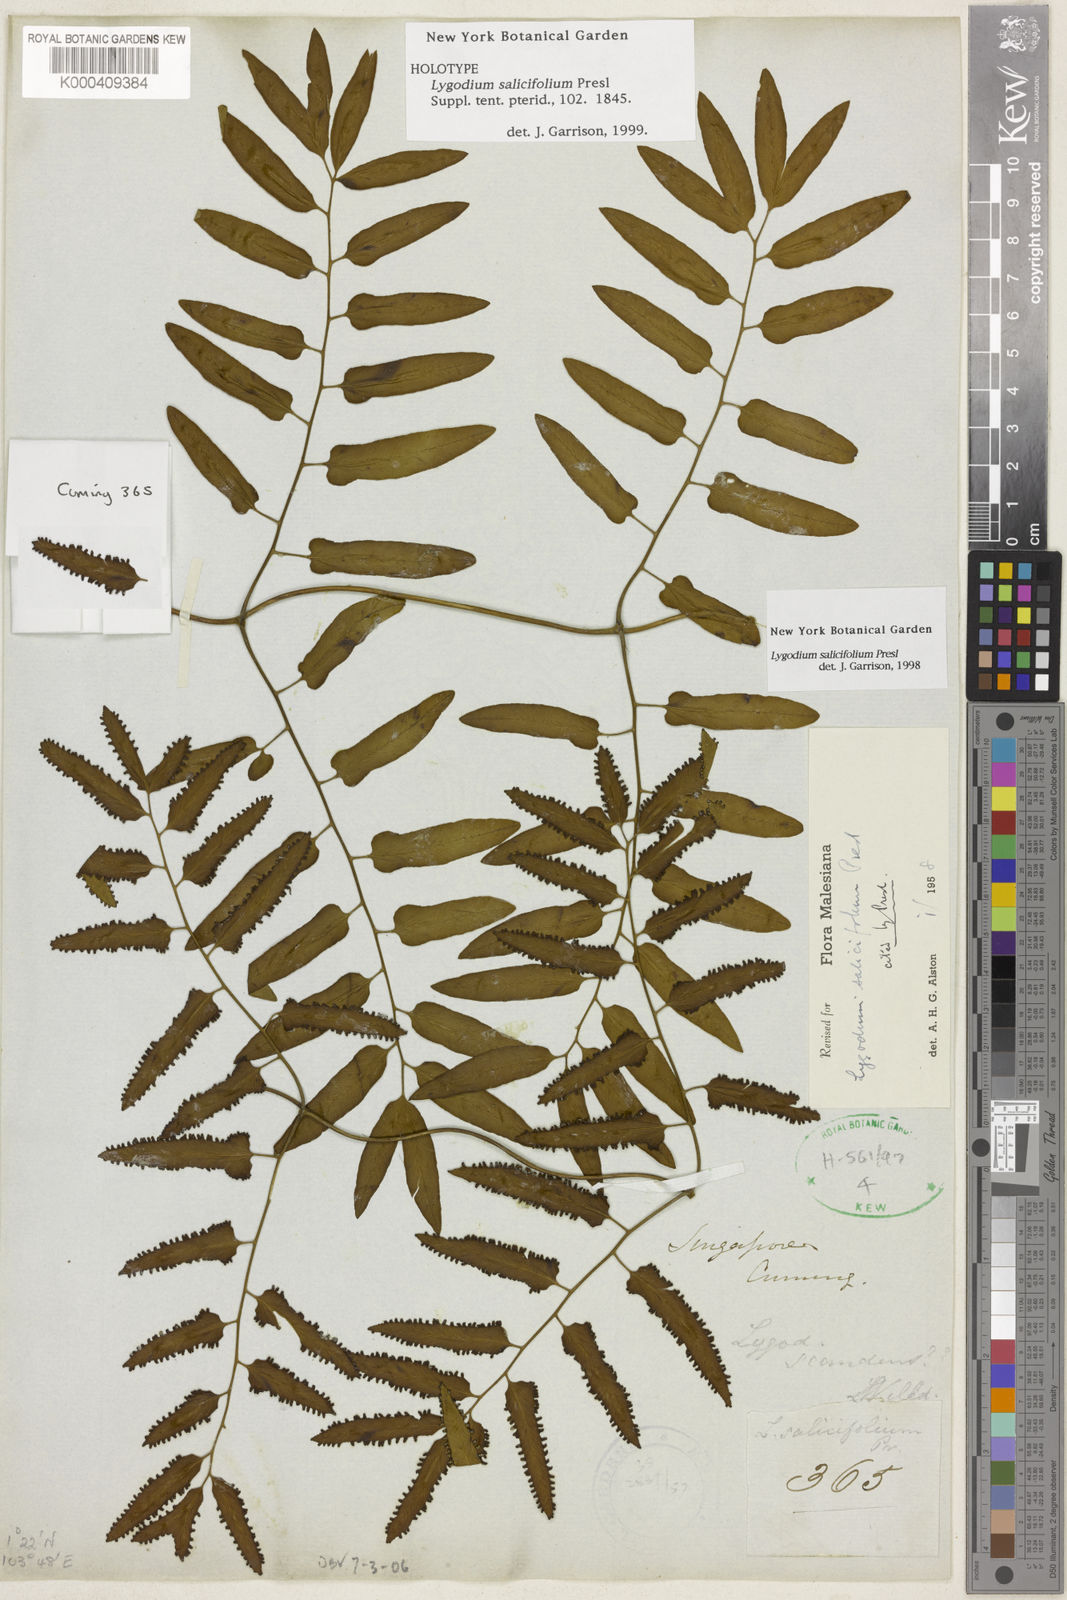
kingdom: Plantae
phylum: Tracheophyta
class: Polypodiopsida
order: Schizaeales
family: Lygodiaceae
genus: Lygodium
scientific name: Lygodium salicifolium
